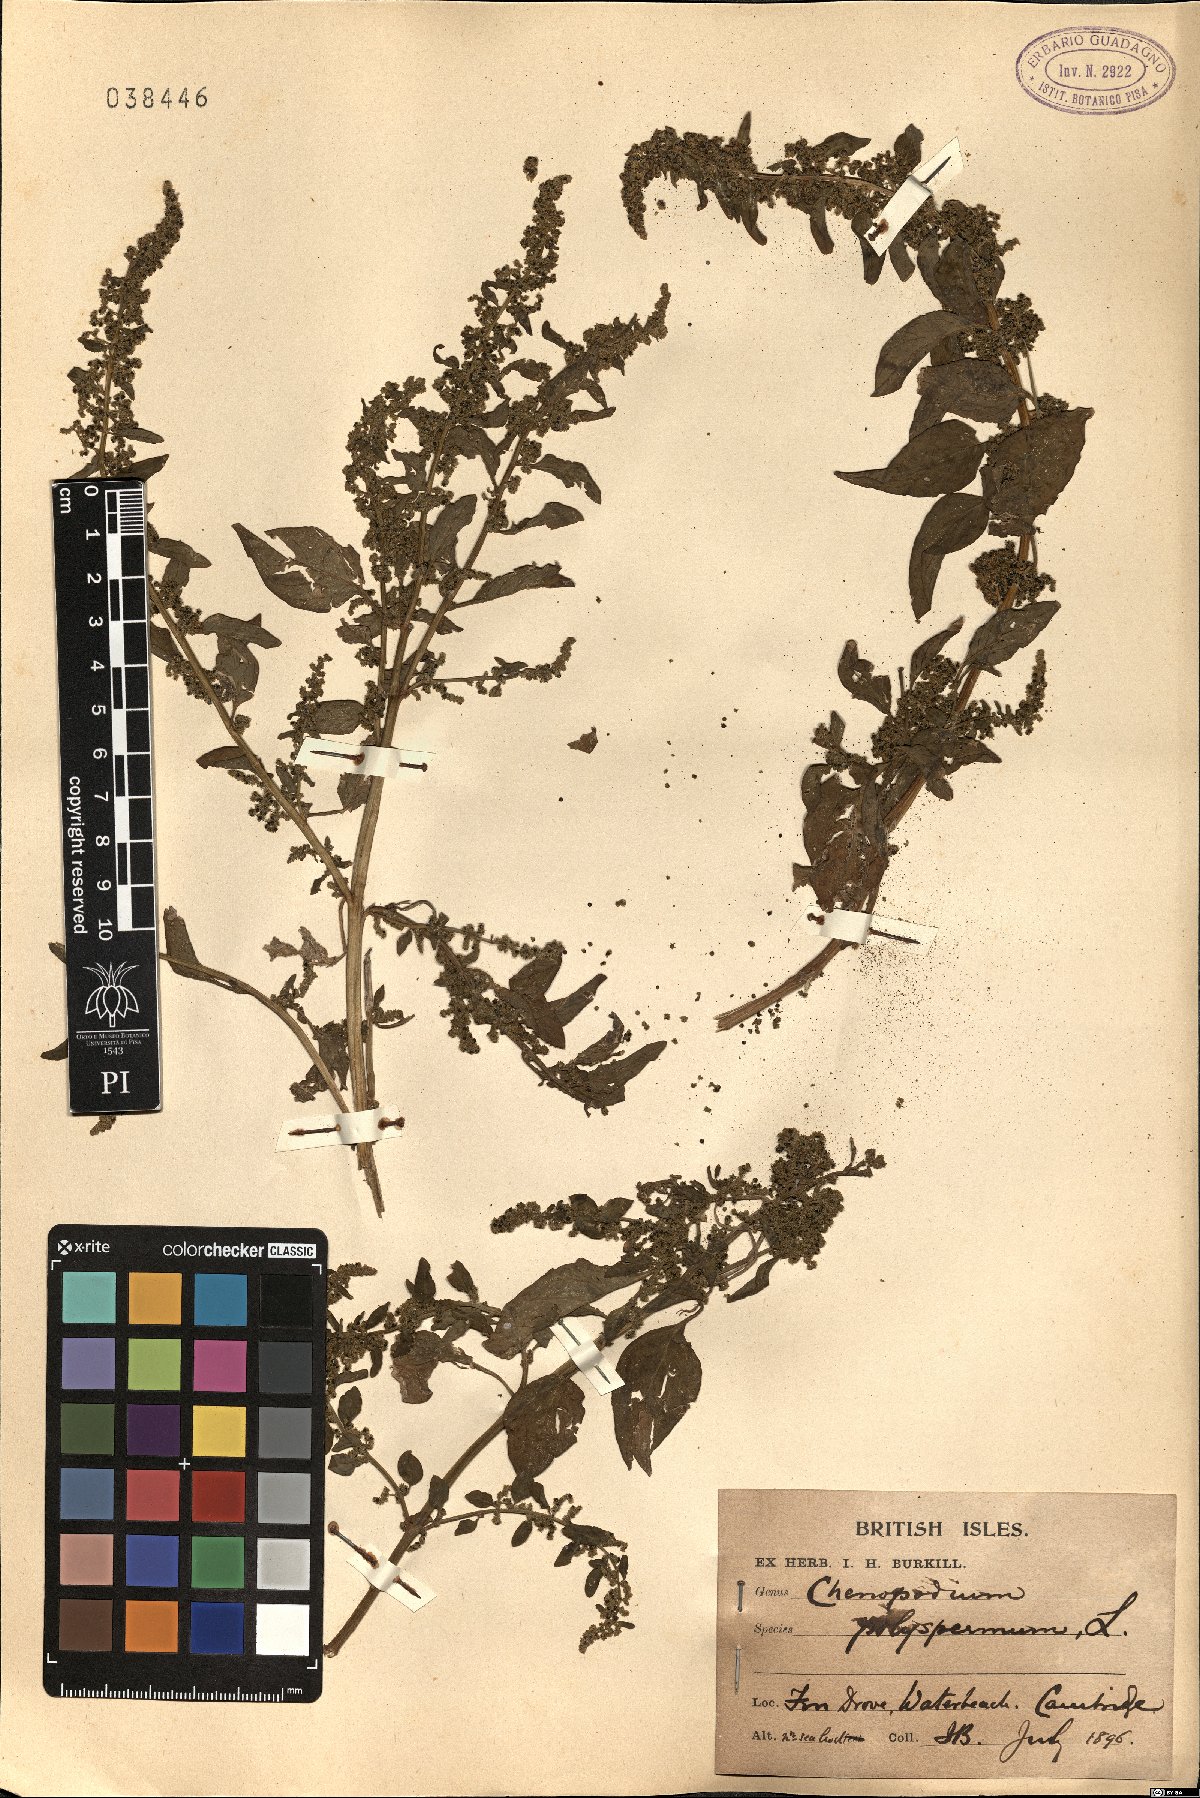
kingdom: Plantae
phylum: Tracheophyta
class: Magnoliopsida
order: Caryophyllales
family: Amaranthaceae
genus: Lipandra
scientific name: Lipandra polysperma
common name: Many-seed goosefoot
